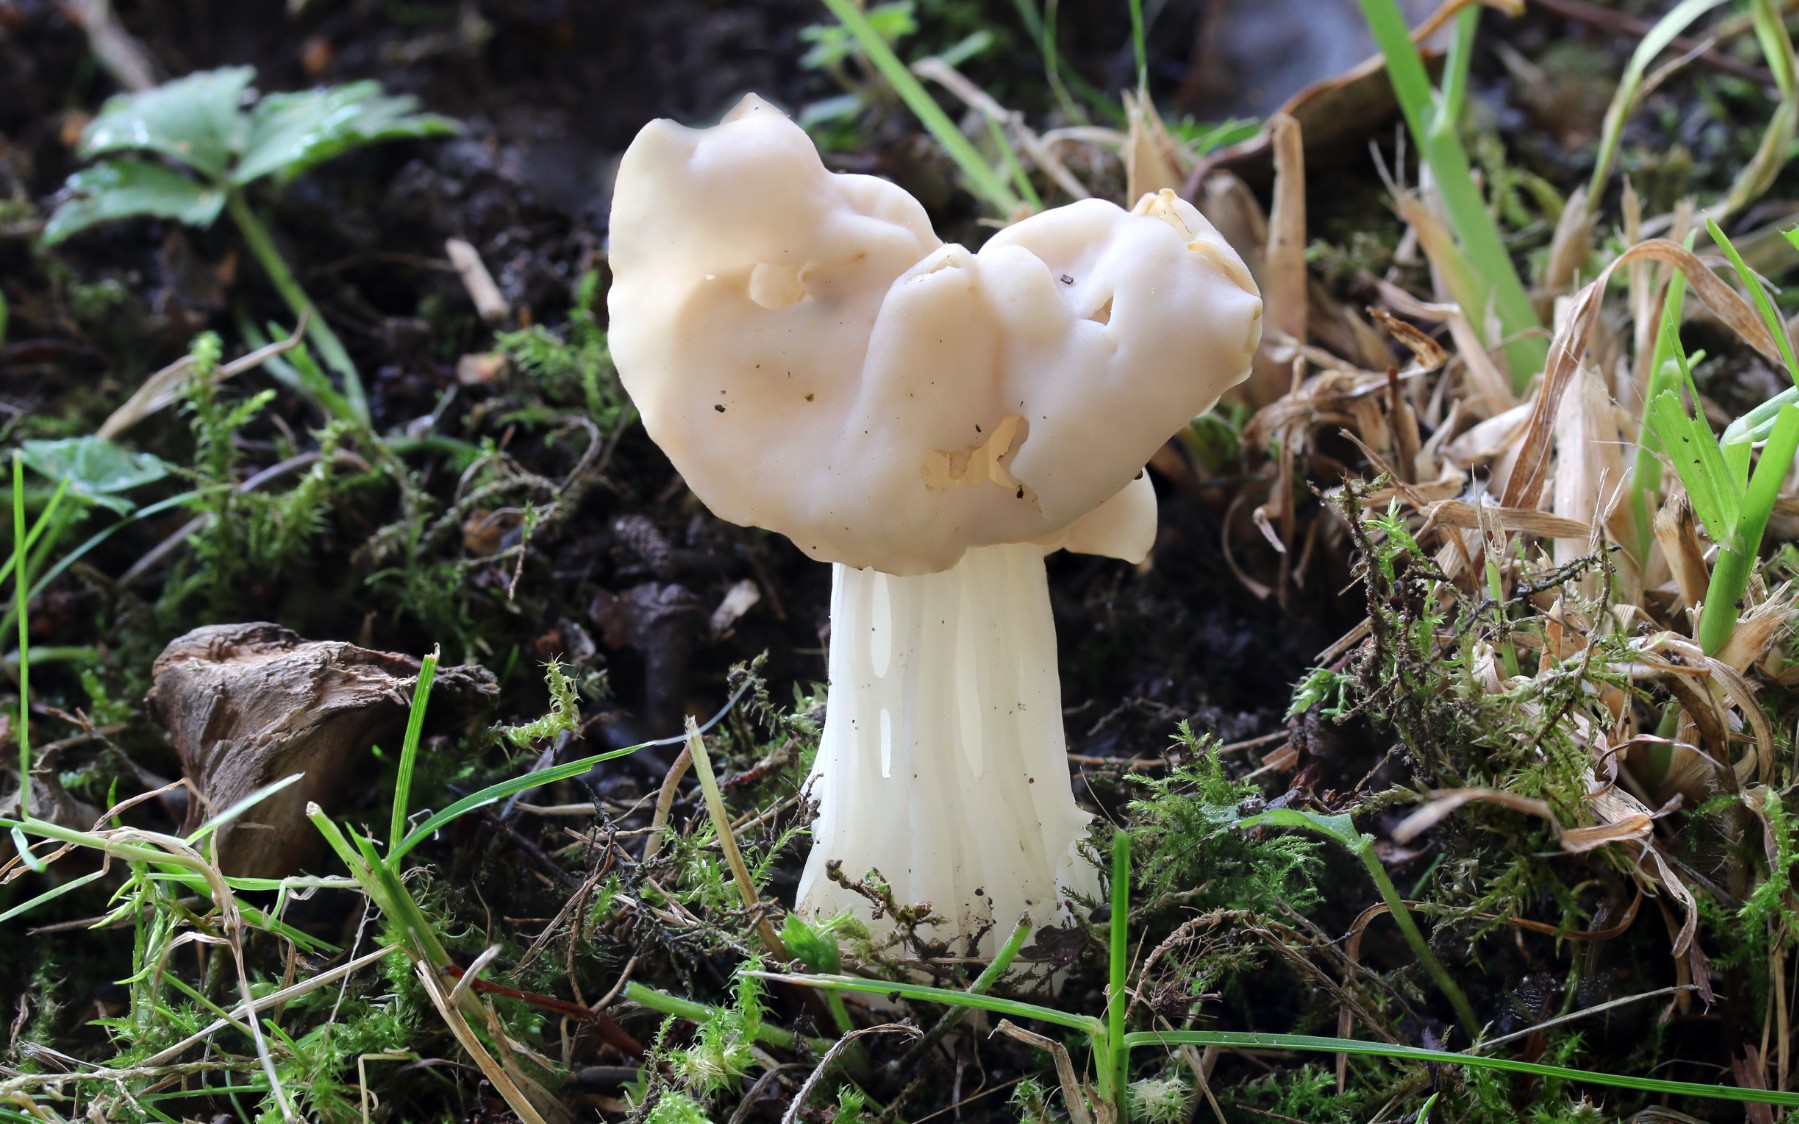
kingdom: Fungi
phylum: Ascomycota
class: Pezizomycetes
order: Pezizales
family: Helvellaceae
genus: Helvella
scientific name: Helvella crispa
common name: kruset foldhat
